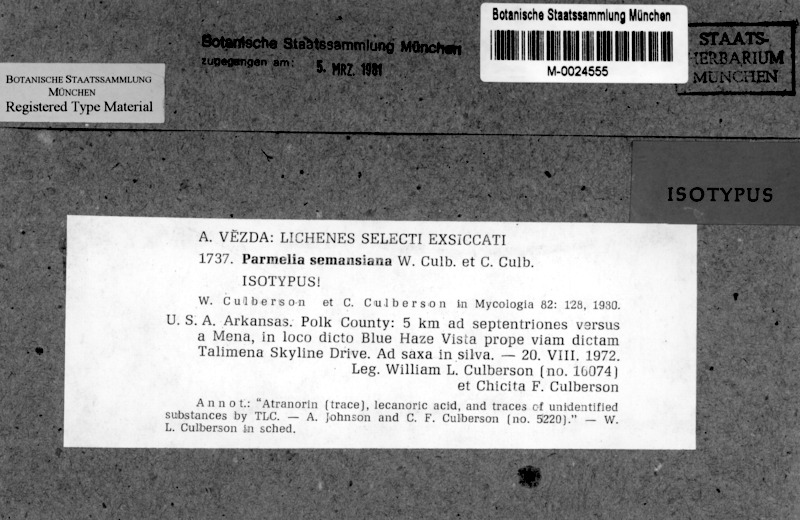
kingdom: Fungi
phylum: Ascomycota
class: Lecanoromycetes
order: Lecanorales
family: Parmeliaceae
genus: Punctelia
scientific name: Punctelia semansiana
